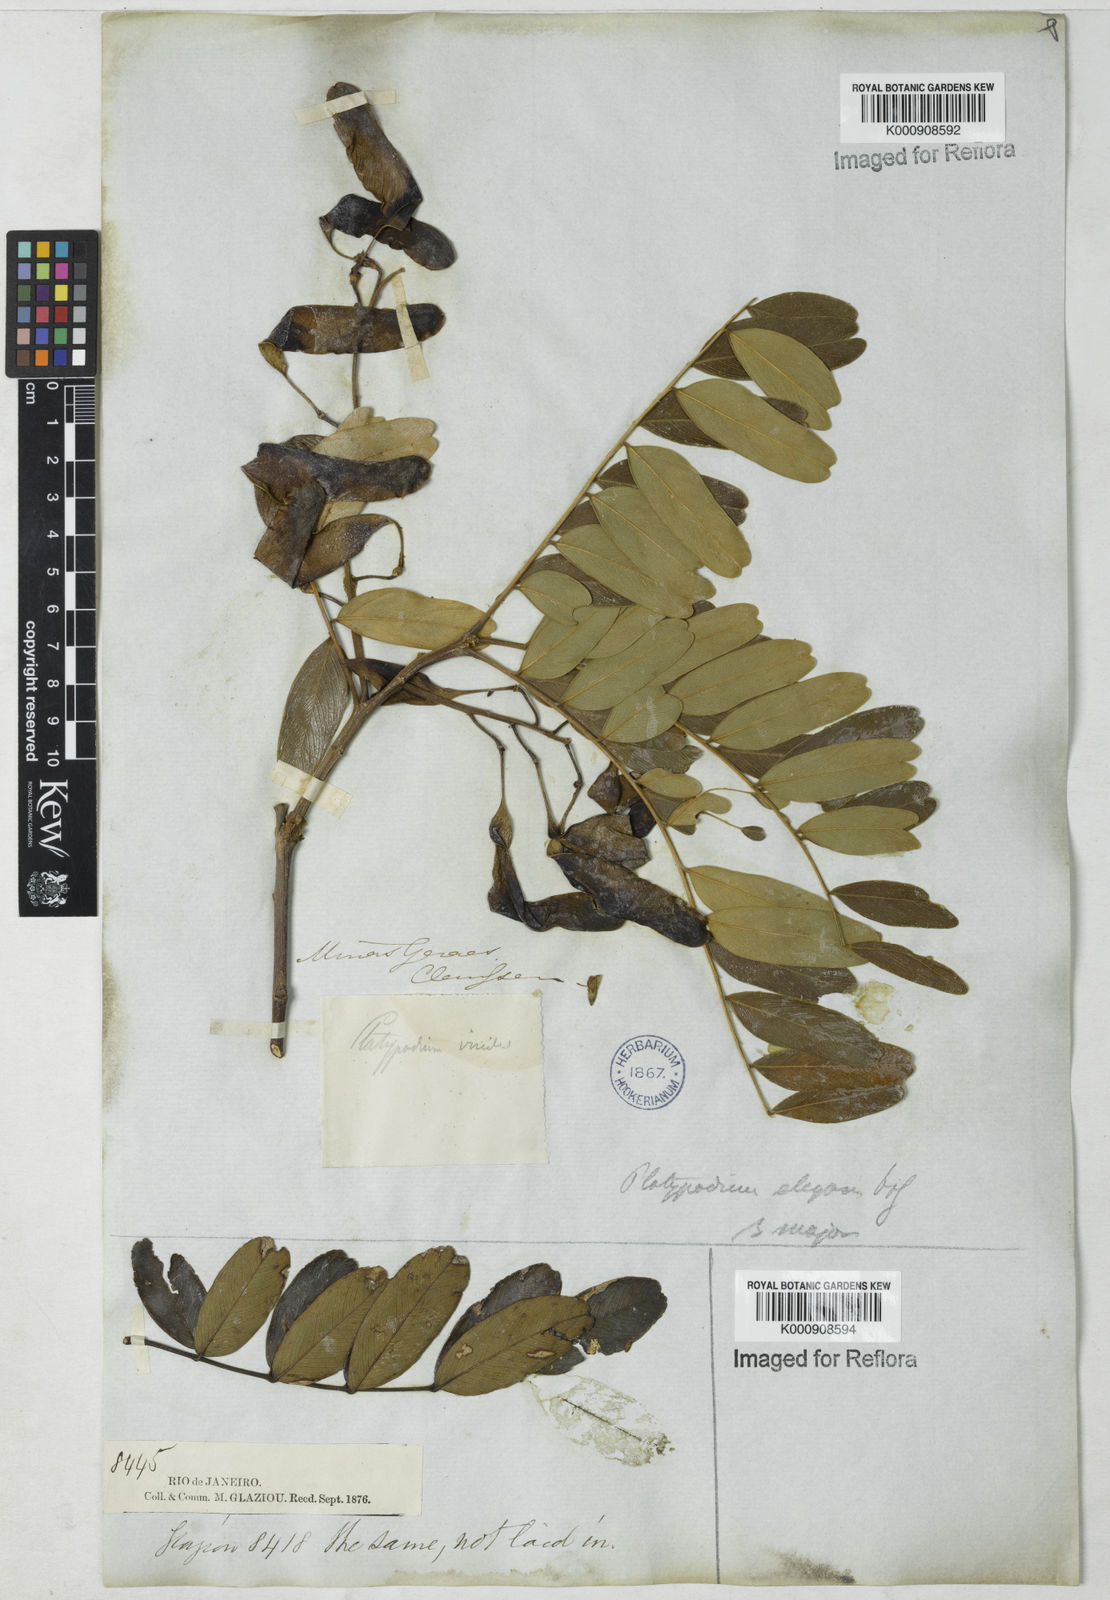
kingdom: Plantae
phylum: Tracheophyta
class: Magnoliopsida
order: Fabales
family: Fabaceae
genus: Platypodium
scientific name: Platypodium
